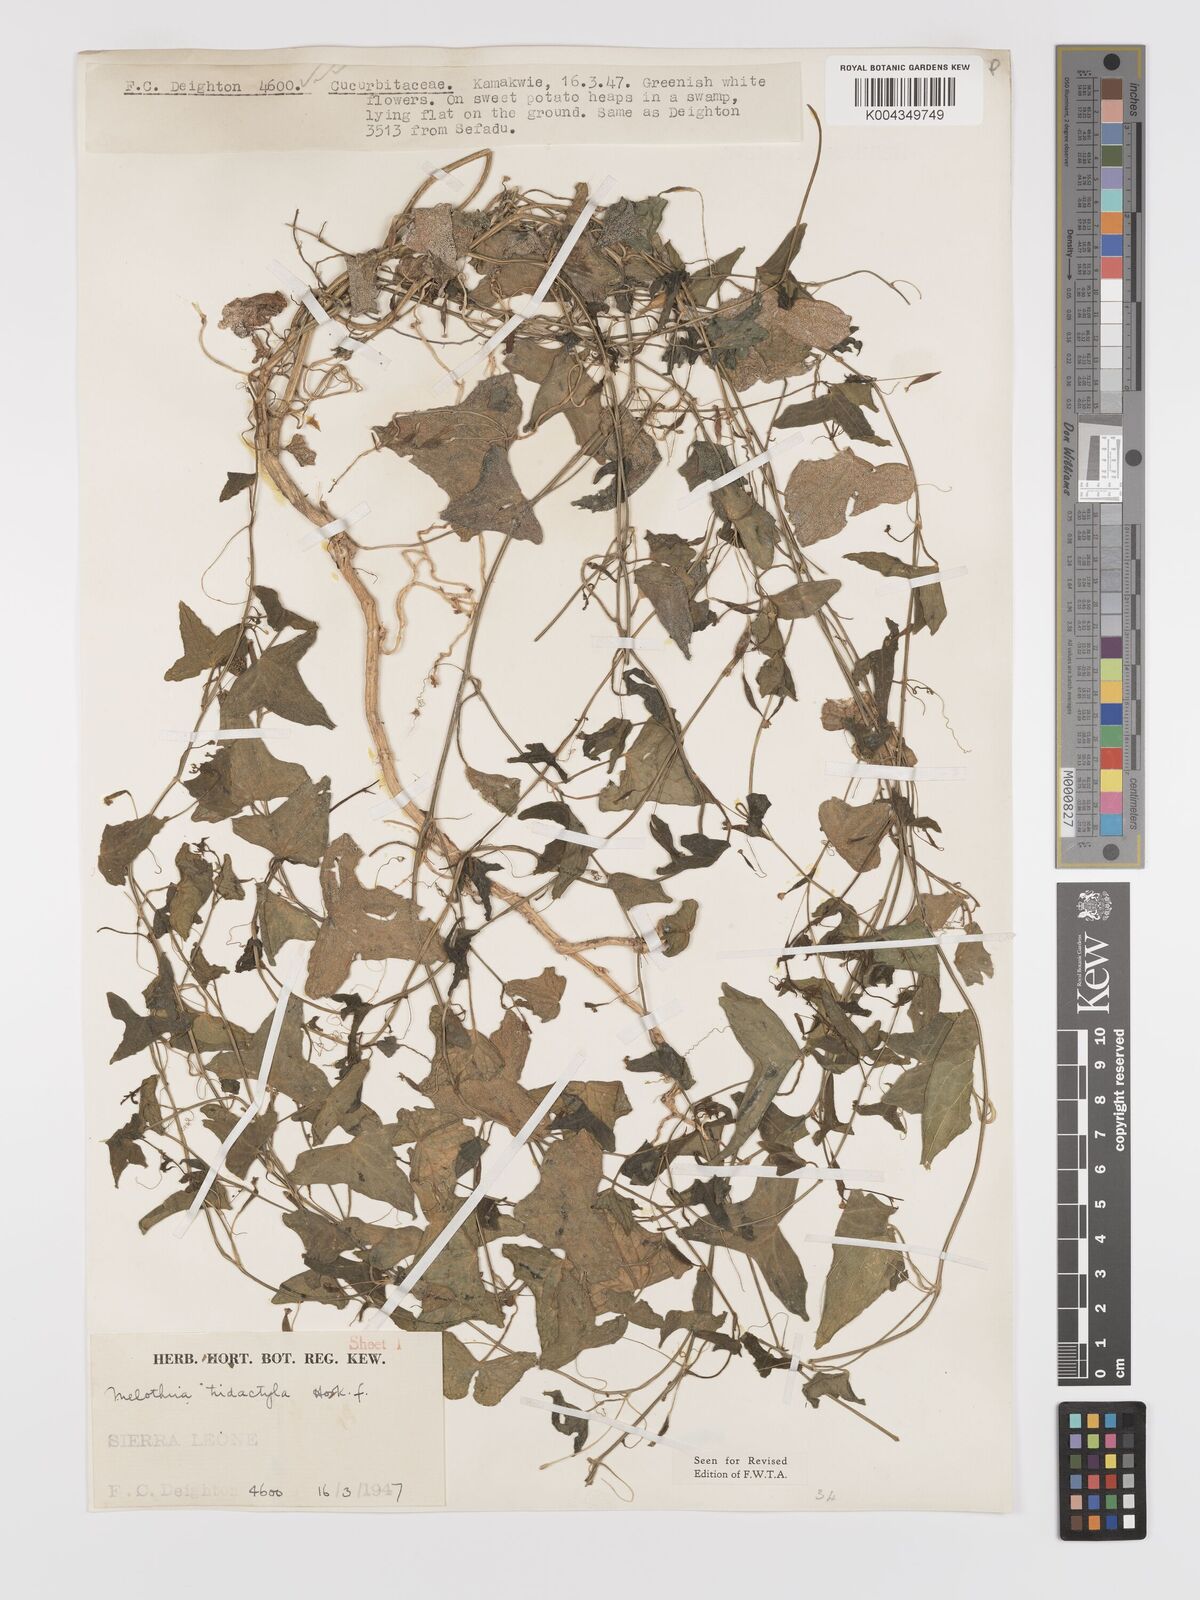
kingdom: Plantae
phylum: Tracheophyta
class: Magnoliopsida
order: Cucurbitales
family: Cucurbitaceae
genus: Zehneria
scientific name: Zehneria thwaitesii
